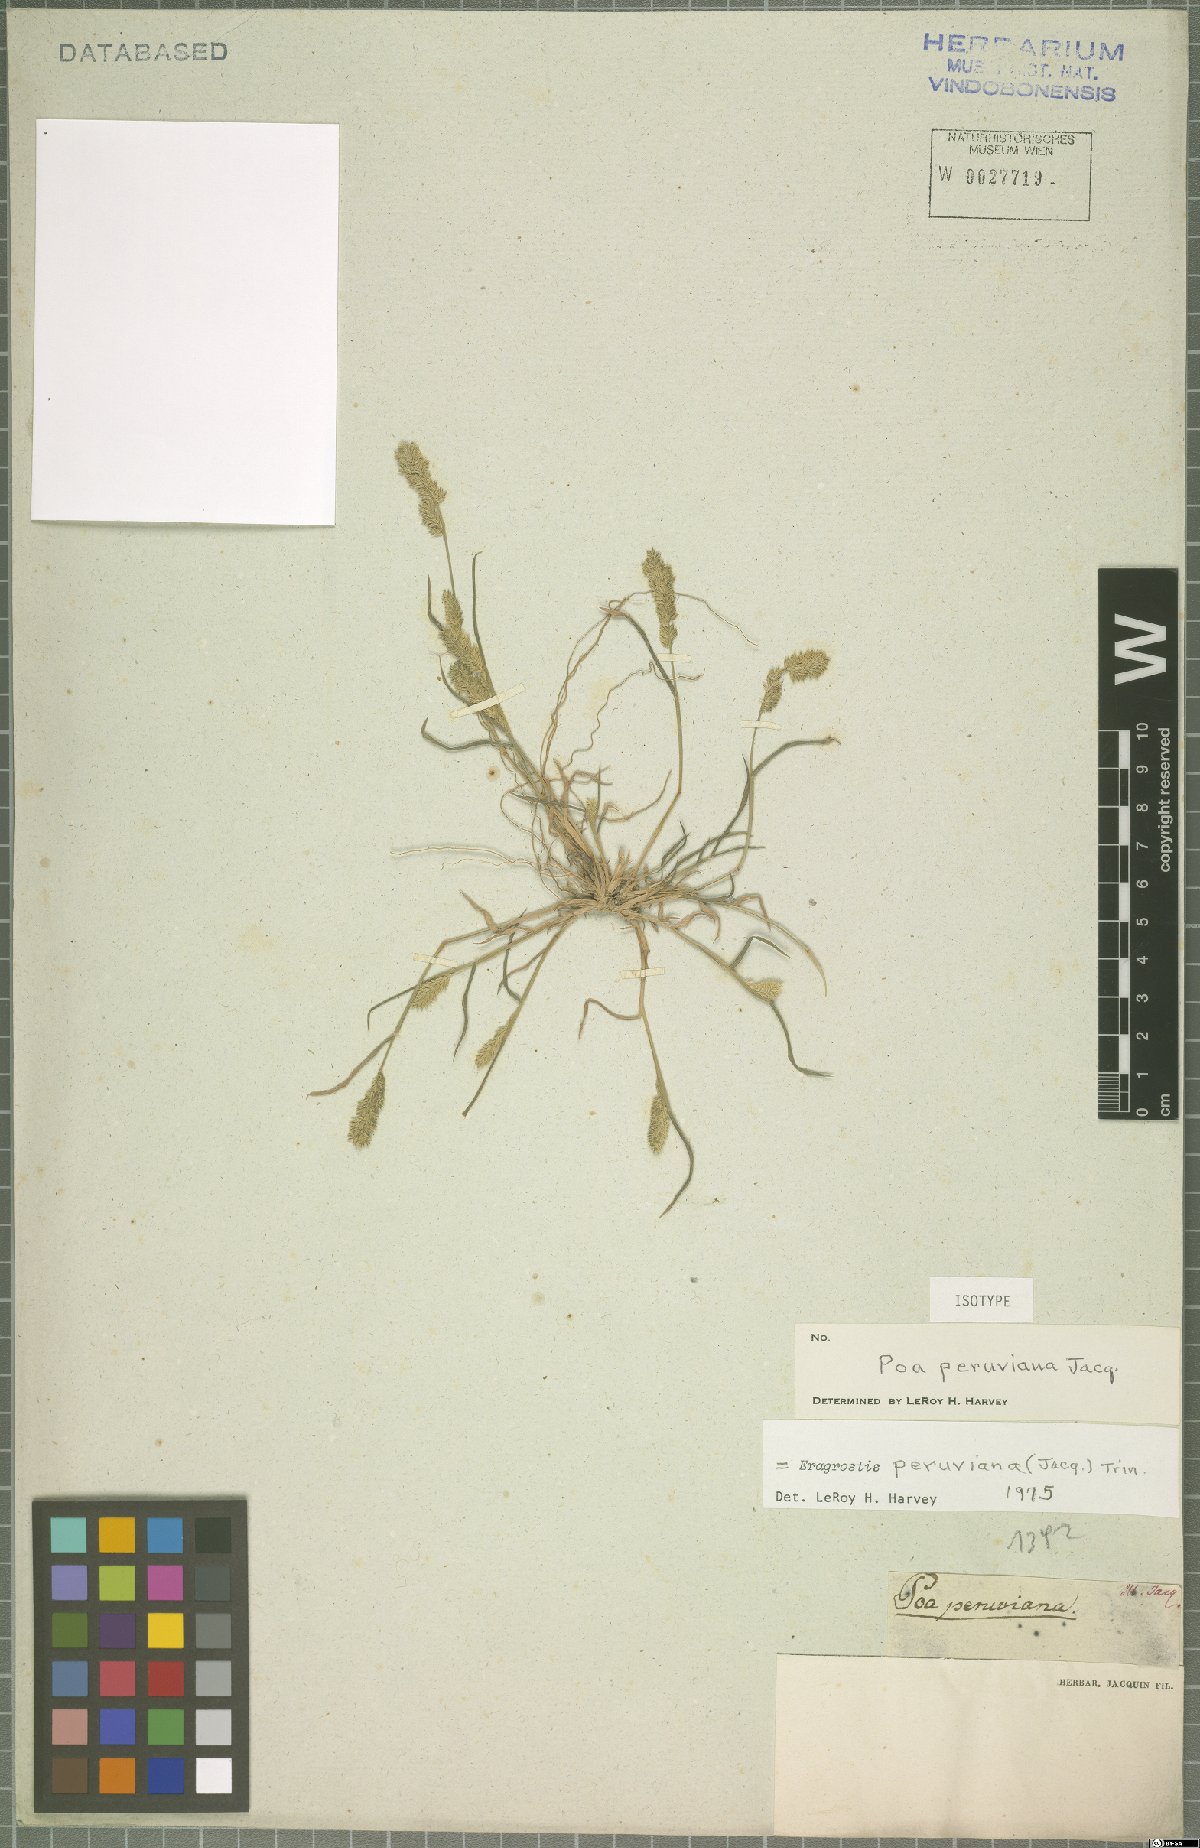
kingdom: Plantae
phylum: Tracheophyta
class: Liliopsida
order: Poales
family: Poaceae
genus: Eragrostis
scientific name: Eragrostis peruviana
